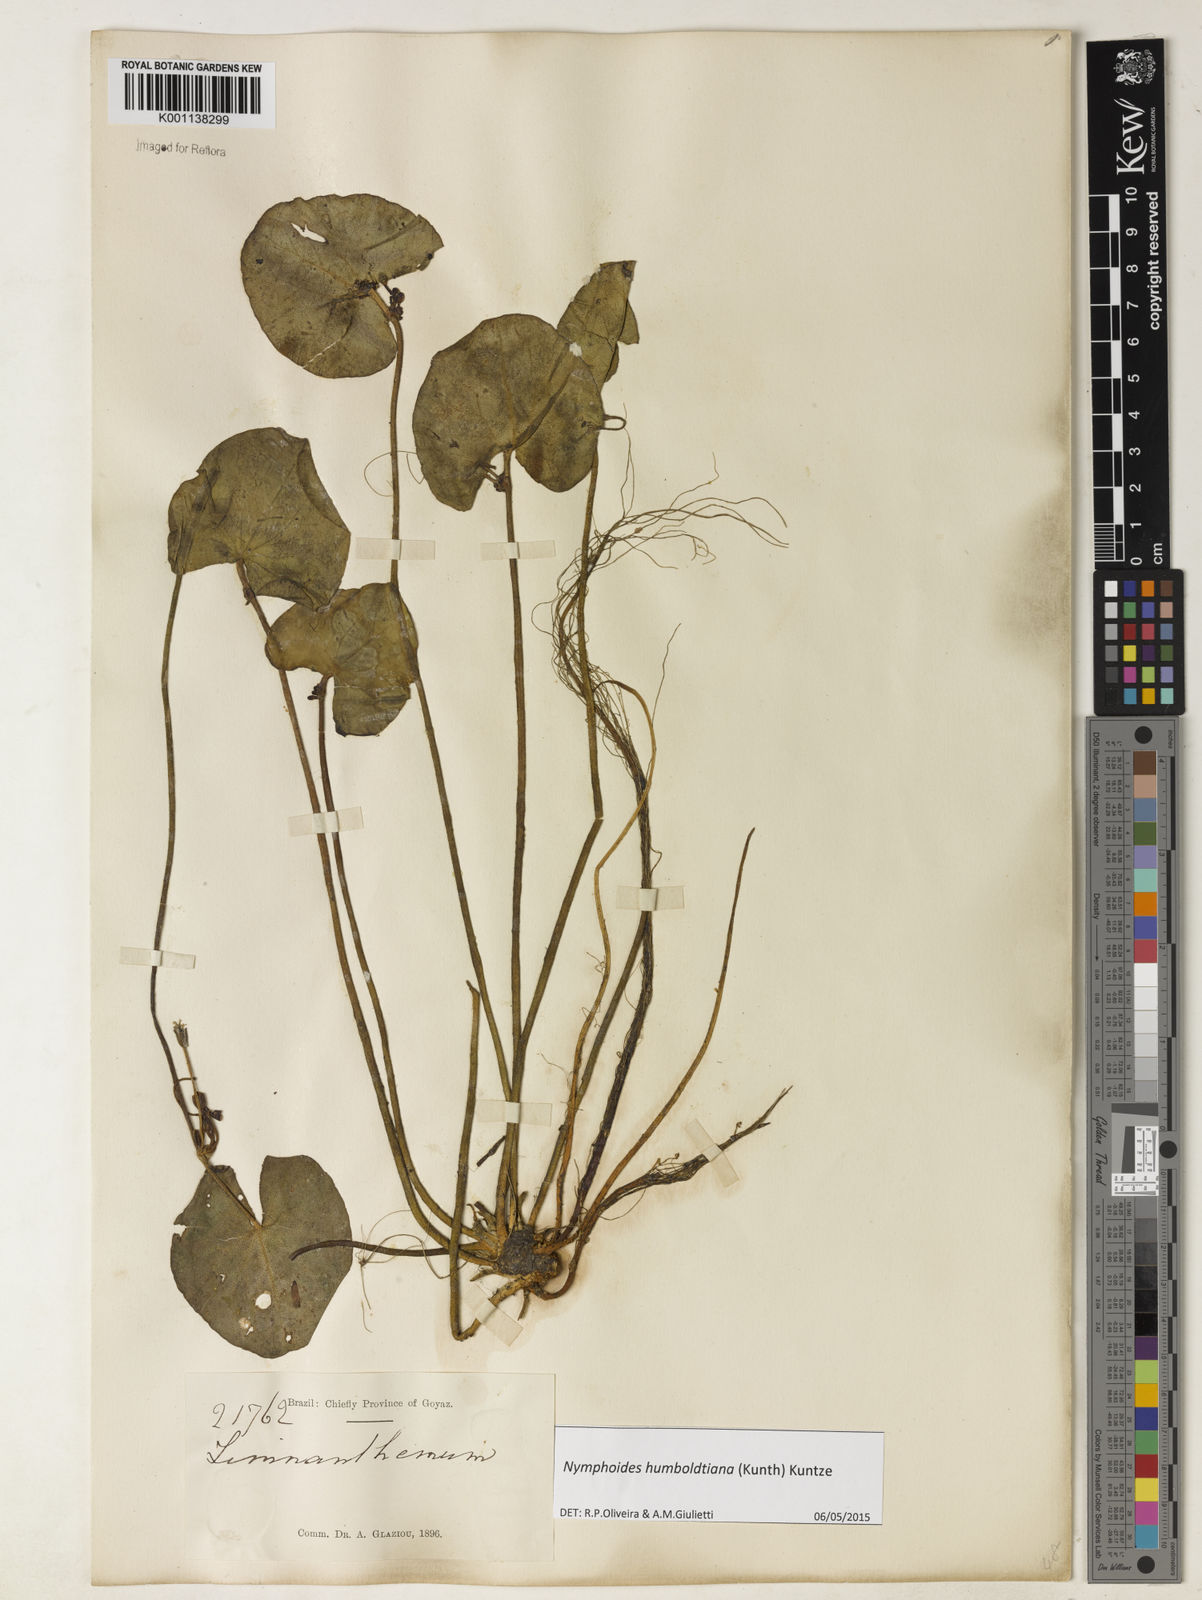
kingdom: Plantae
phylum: Tracheophyta
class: Magnoliopsida
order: Asterales
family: Menyanthaceae
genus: Nymphoides
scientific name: Nymphoides indica
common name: Water-snowflake
